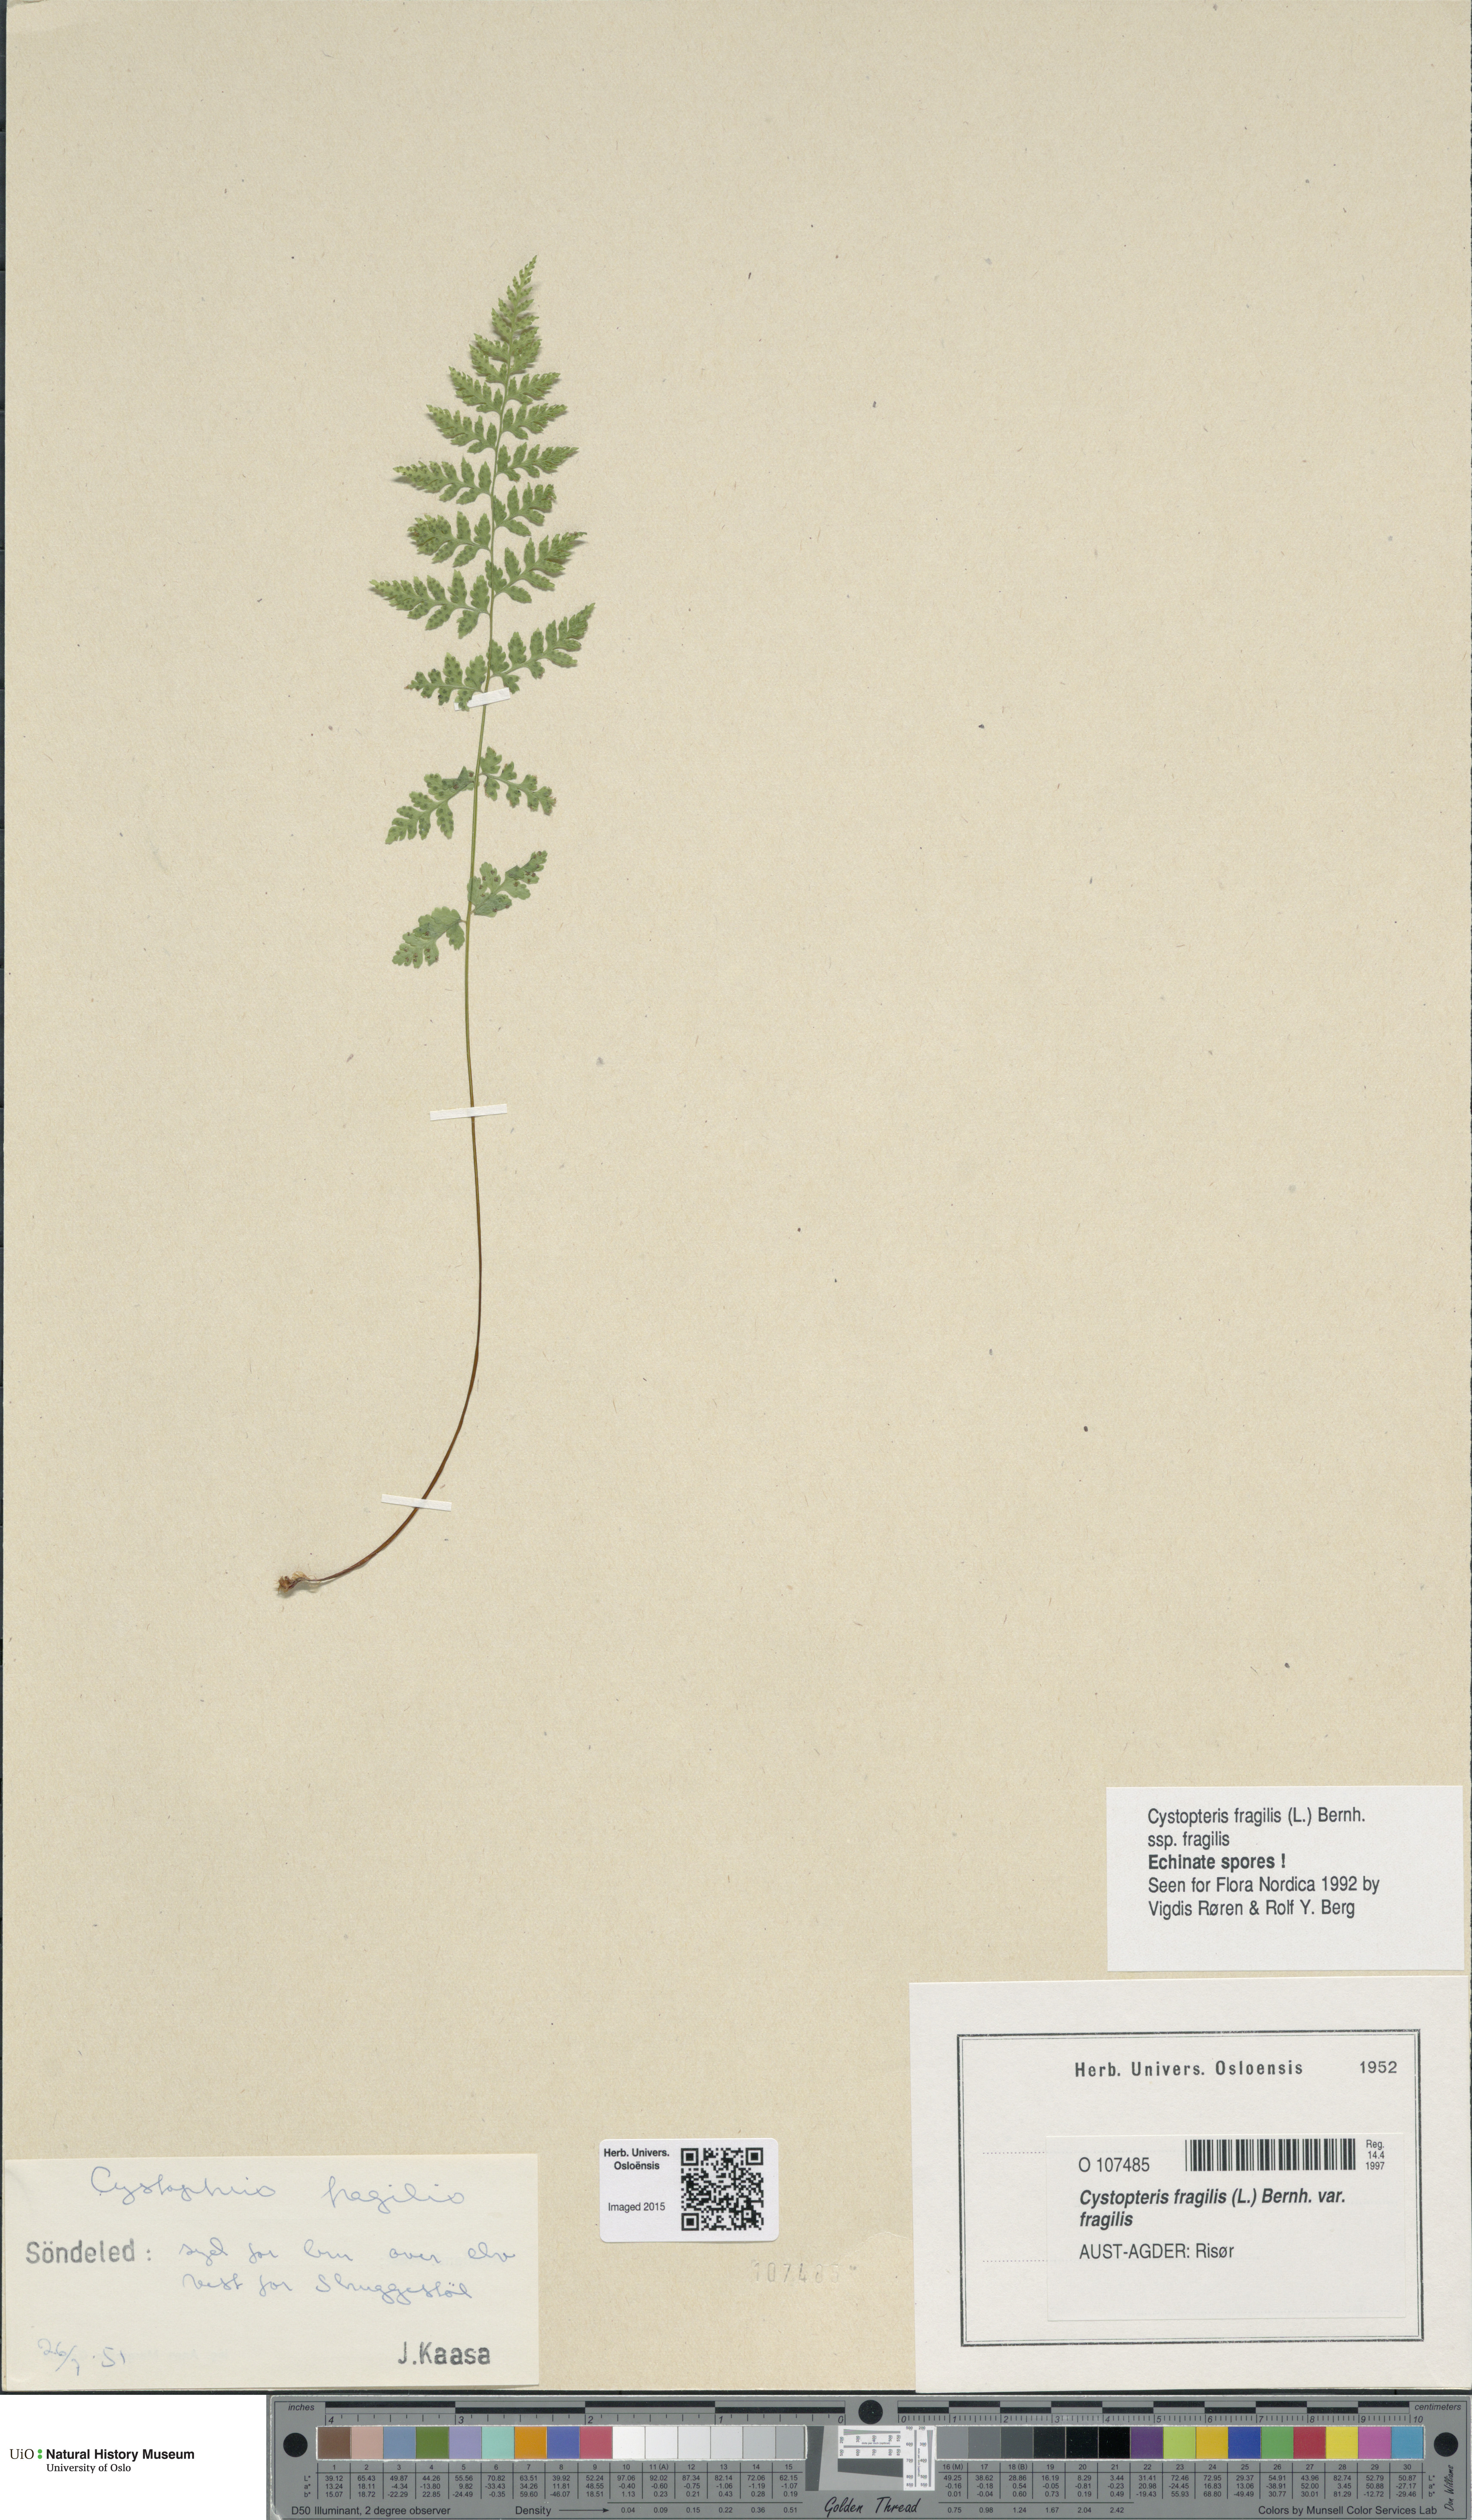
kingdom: Plantae
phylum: Tracheophyta
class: Polypodiopsida
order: Polypodiales
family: Cystopteridaceae
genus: Cystopteris
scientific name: Cystopteris fragilis
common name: Brittle bladder fern
